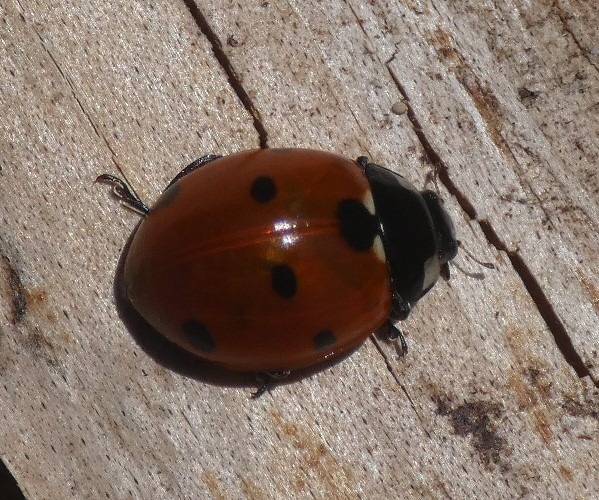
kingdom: Animalia
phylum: Arthropoda
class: Insecta
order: Coleoptera
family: Coccinellidae
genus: Coccinella
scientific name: Coccinella septempunctata
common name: Syvplettet mariehøne
